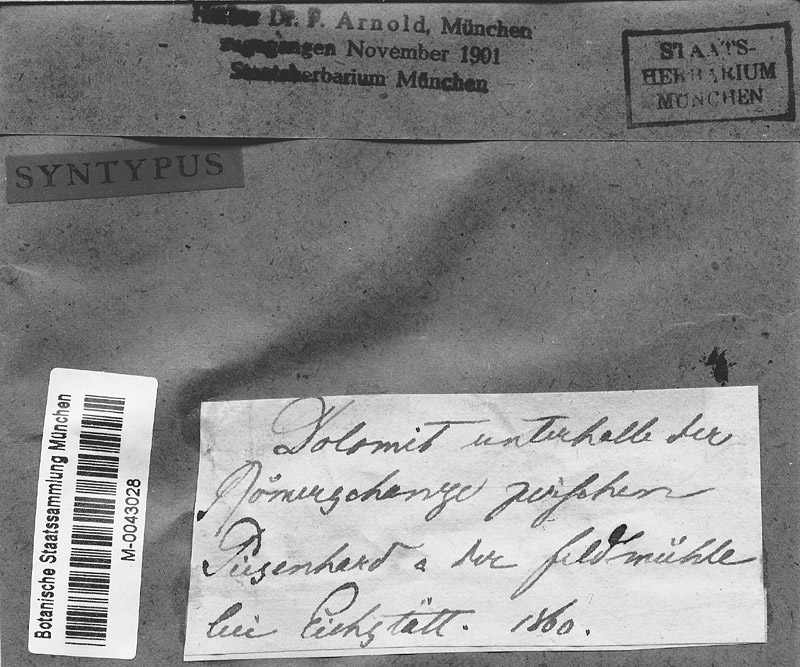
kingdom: Fungi
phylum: Ascomycota
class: Dothideomycetes
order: Trypetheliales
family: Polycoccaceae
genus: Polycoccum
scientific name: Polycoccum marmoratum
